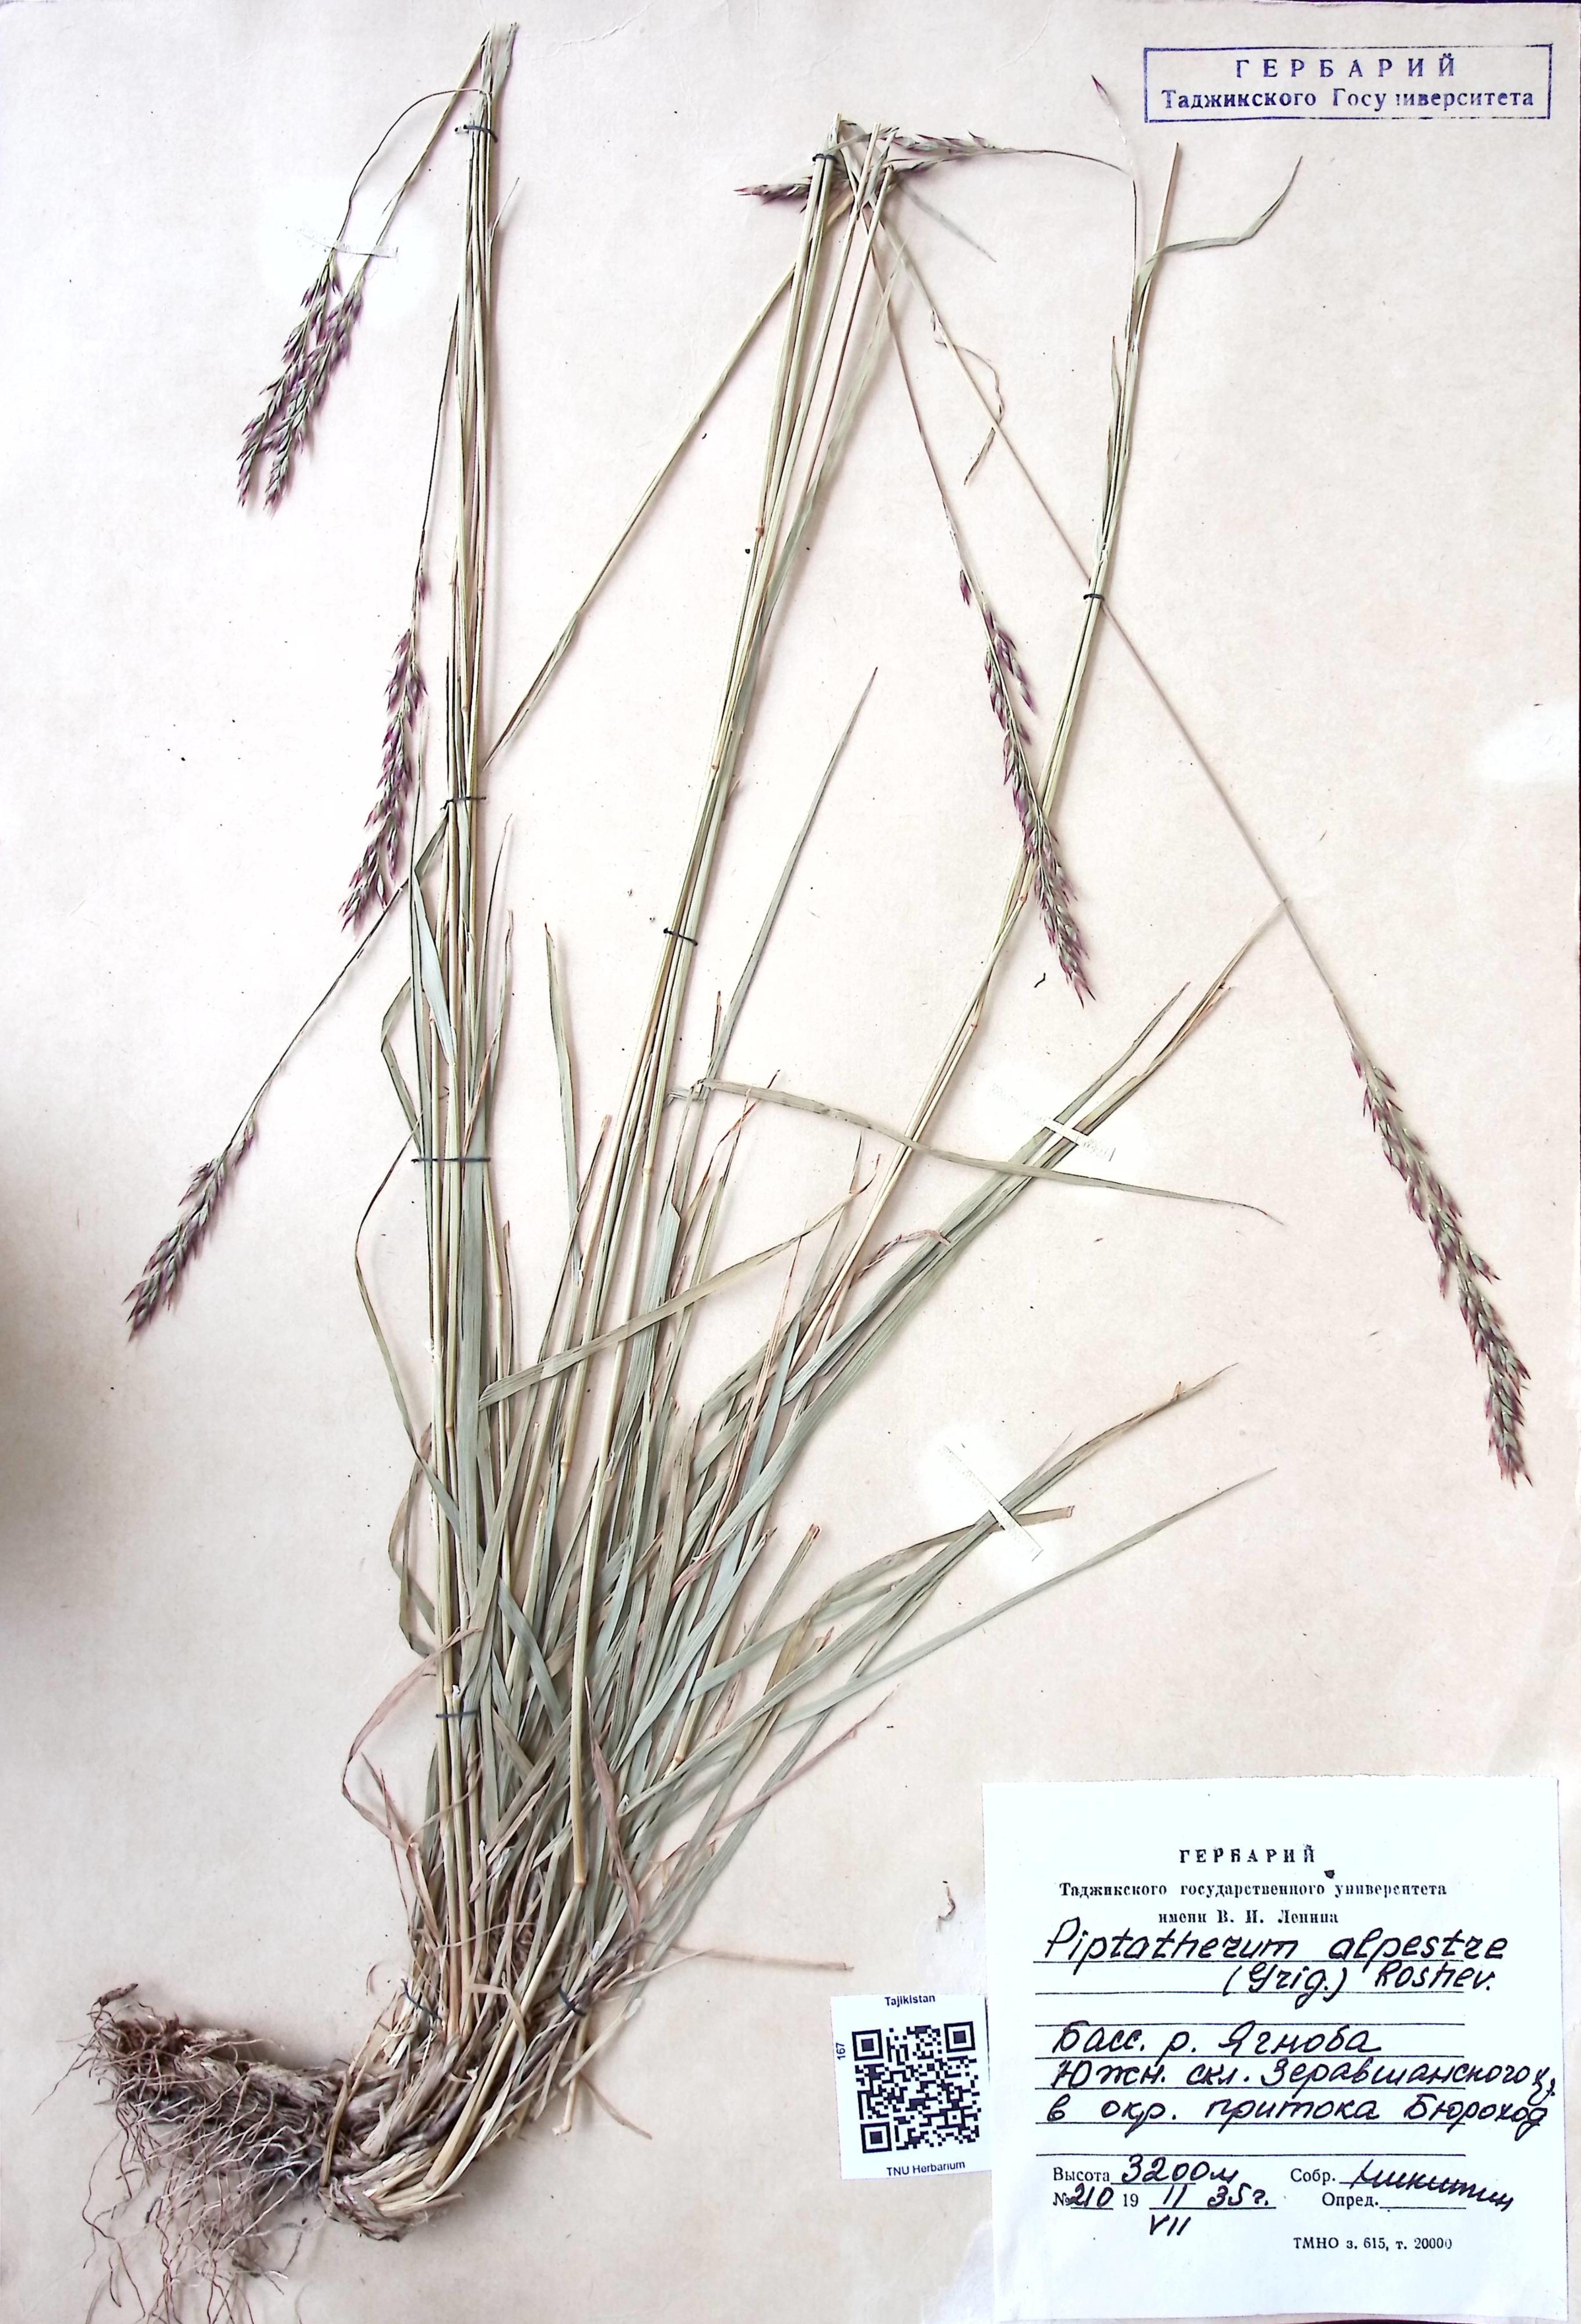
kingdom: Plantae
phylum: Tracheophyta
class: Liliopsida
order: Poales
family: Poaceae
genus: Piptatherum
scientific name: Piptatherum alpestre
